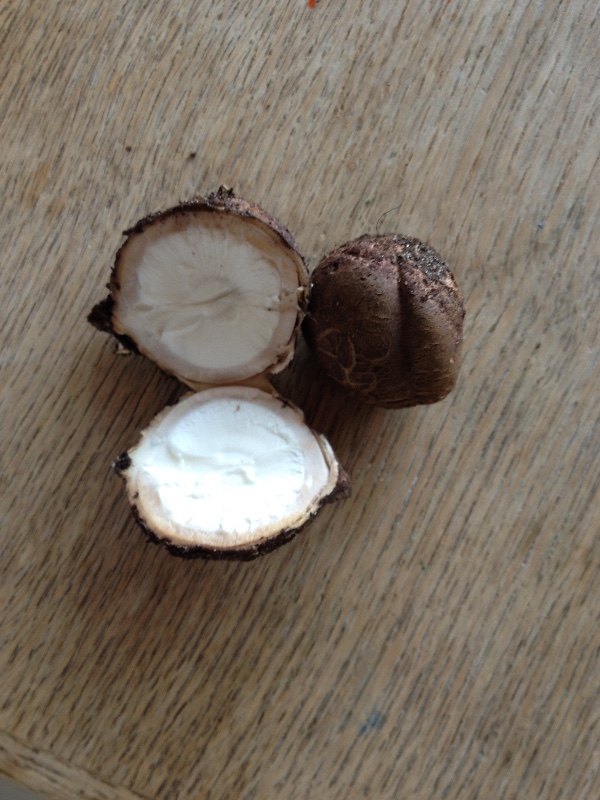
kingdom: Fungi
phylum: Basidiomycota
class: Agaricomycetes
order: Geastrales
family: Geastraceae
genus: Geastrum
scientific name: Geastrum michelianum
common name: kødet stjernebold
